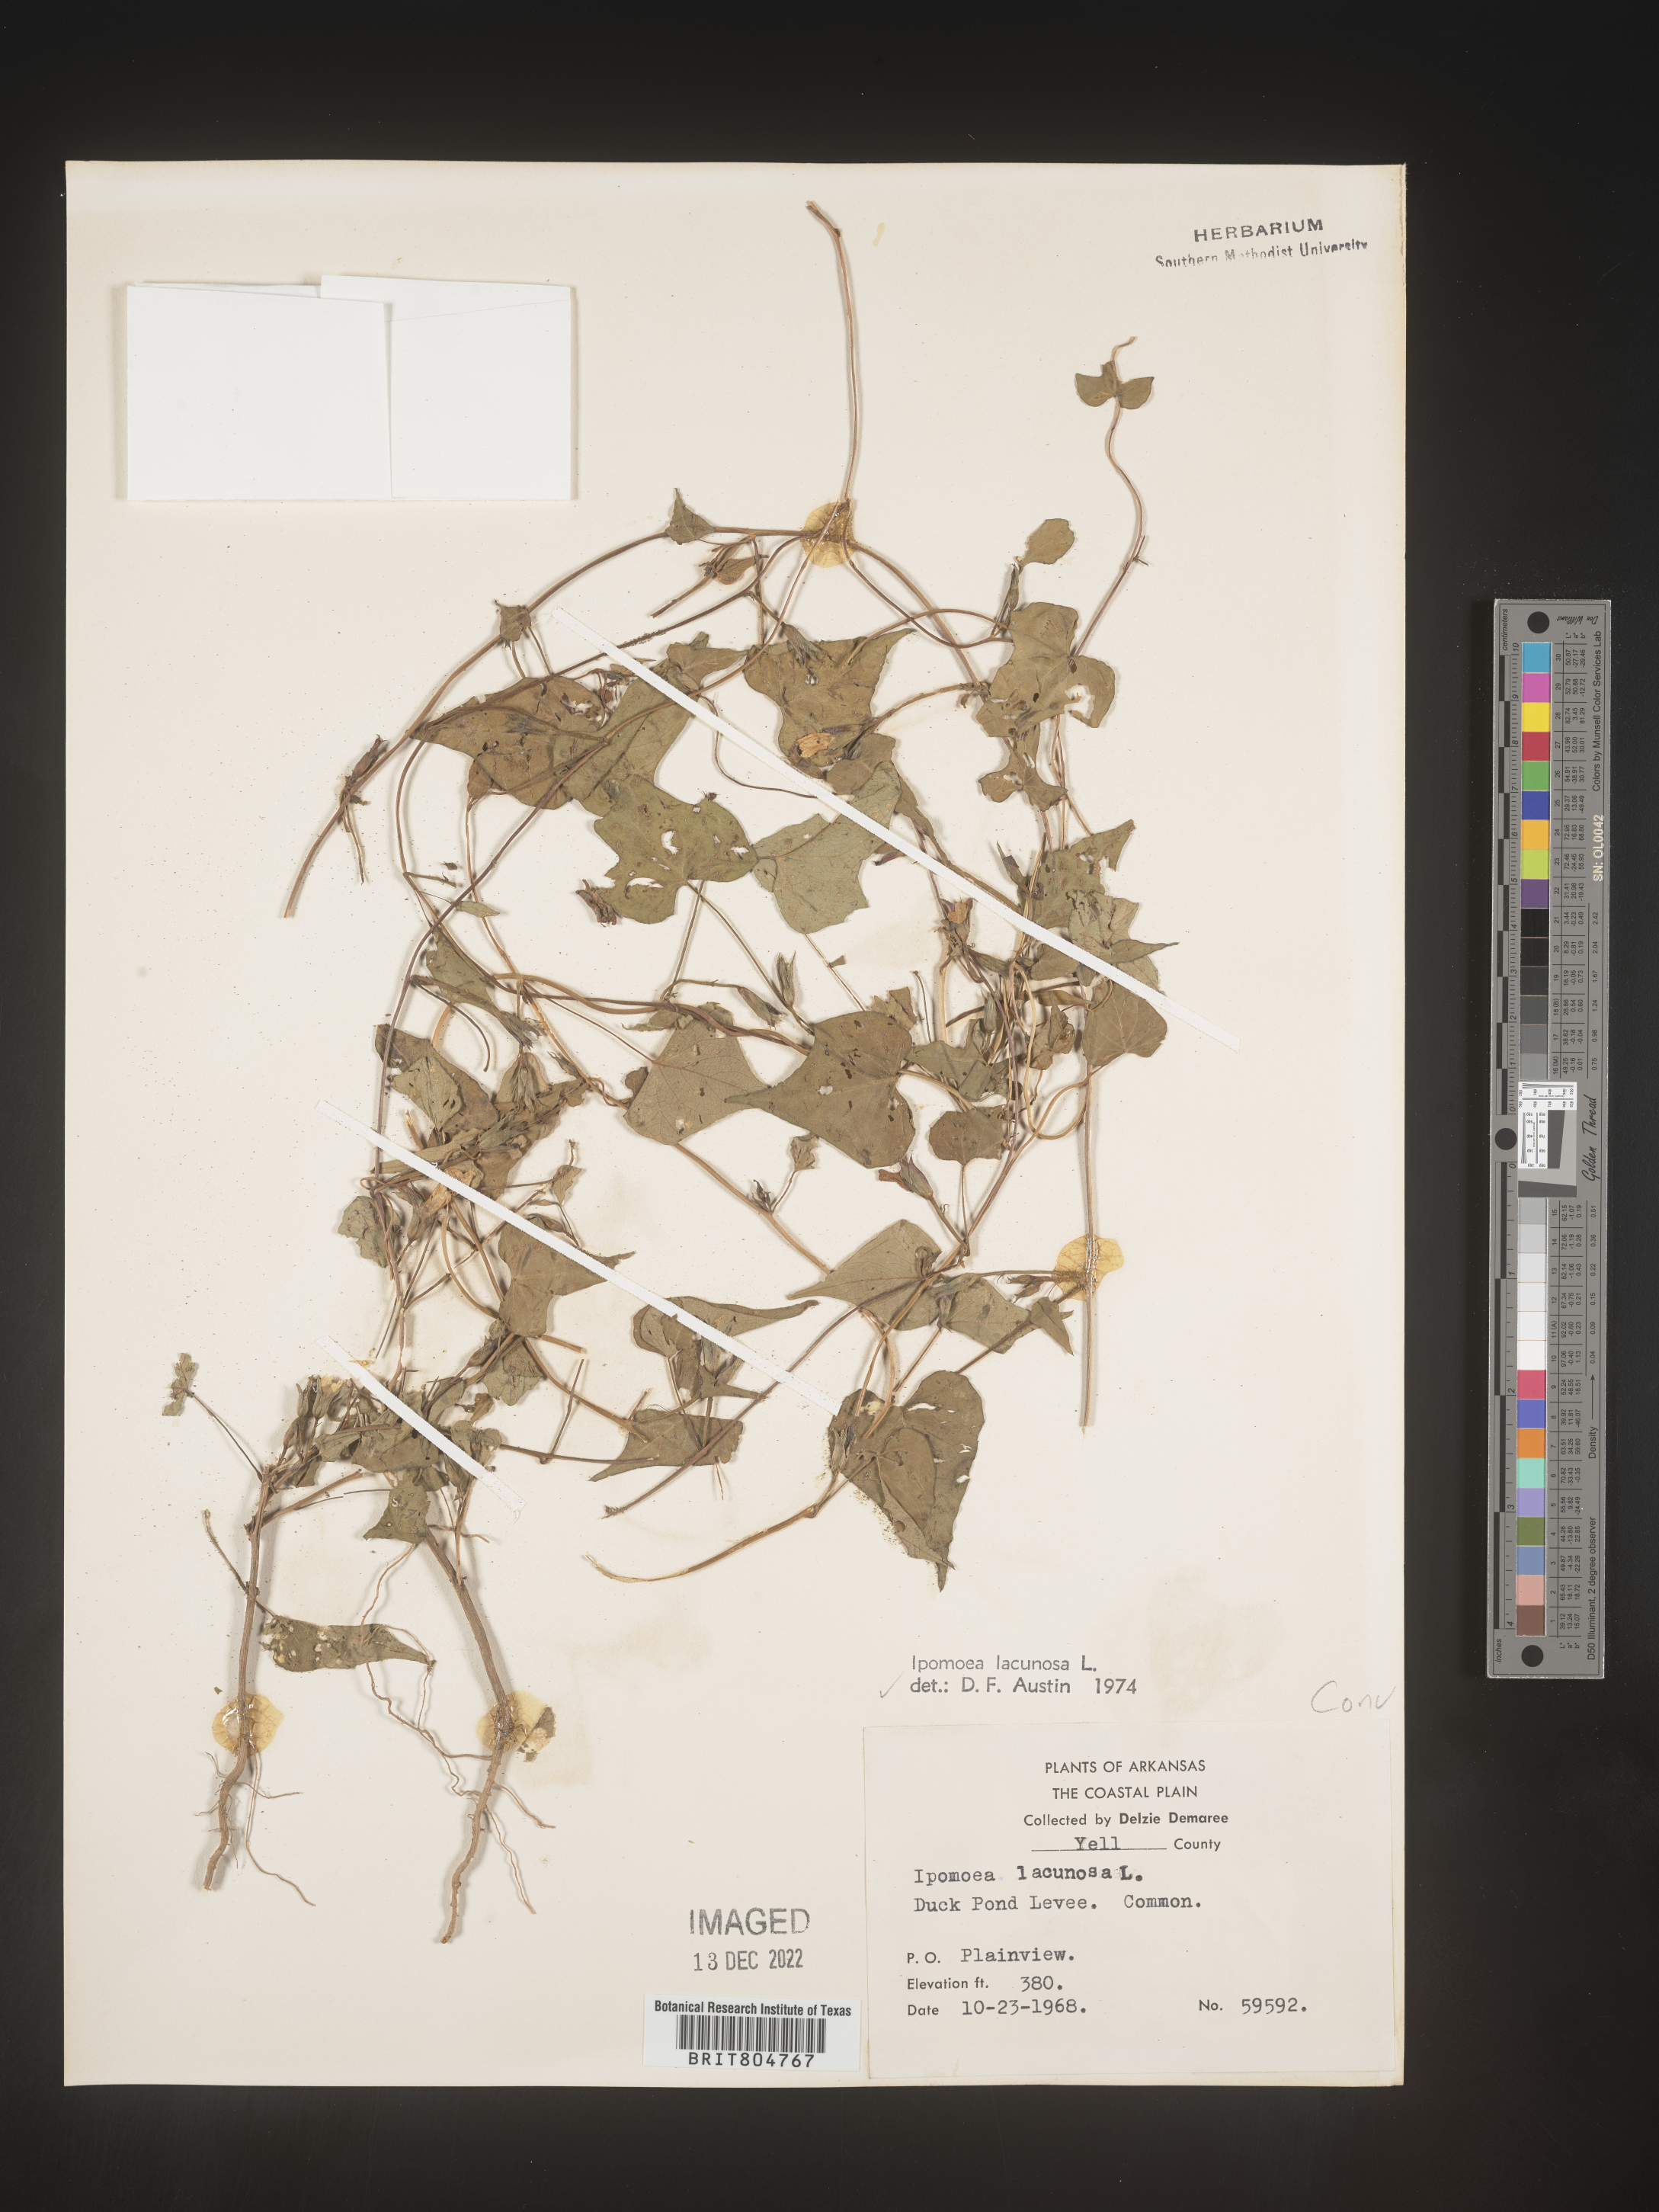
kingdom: Plantae
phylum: Tracheophyta
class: Magnoliopsida
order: Solanales
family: Convolvulaceae
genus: Ipomoea
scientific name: Ipomoea lacunosa
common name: White morning-glory
